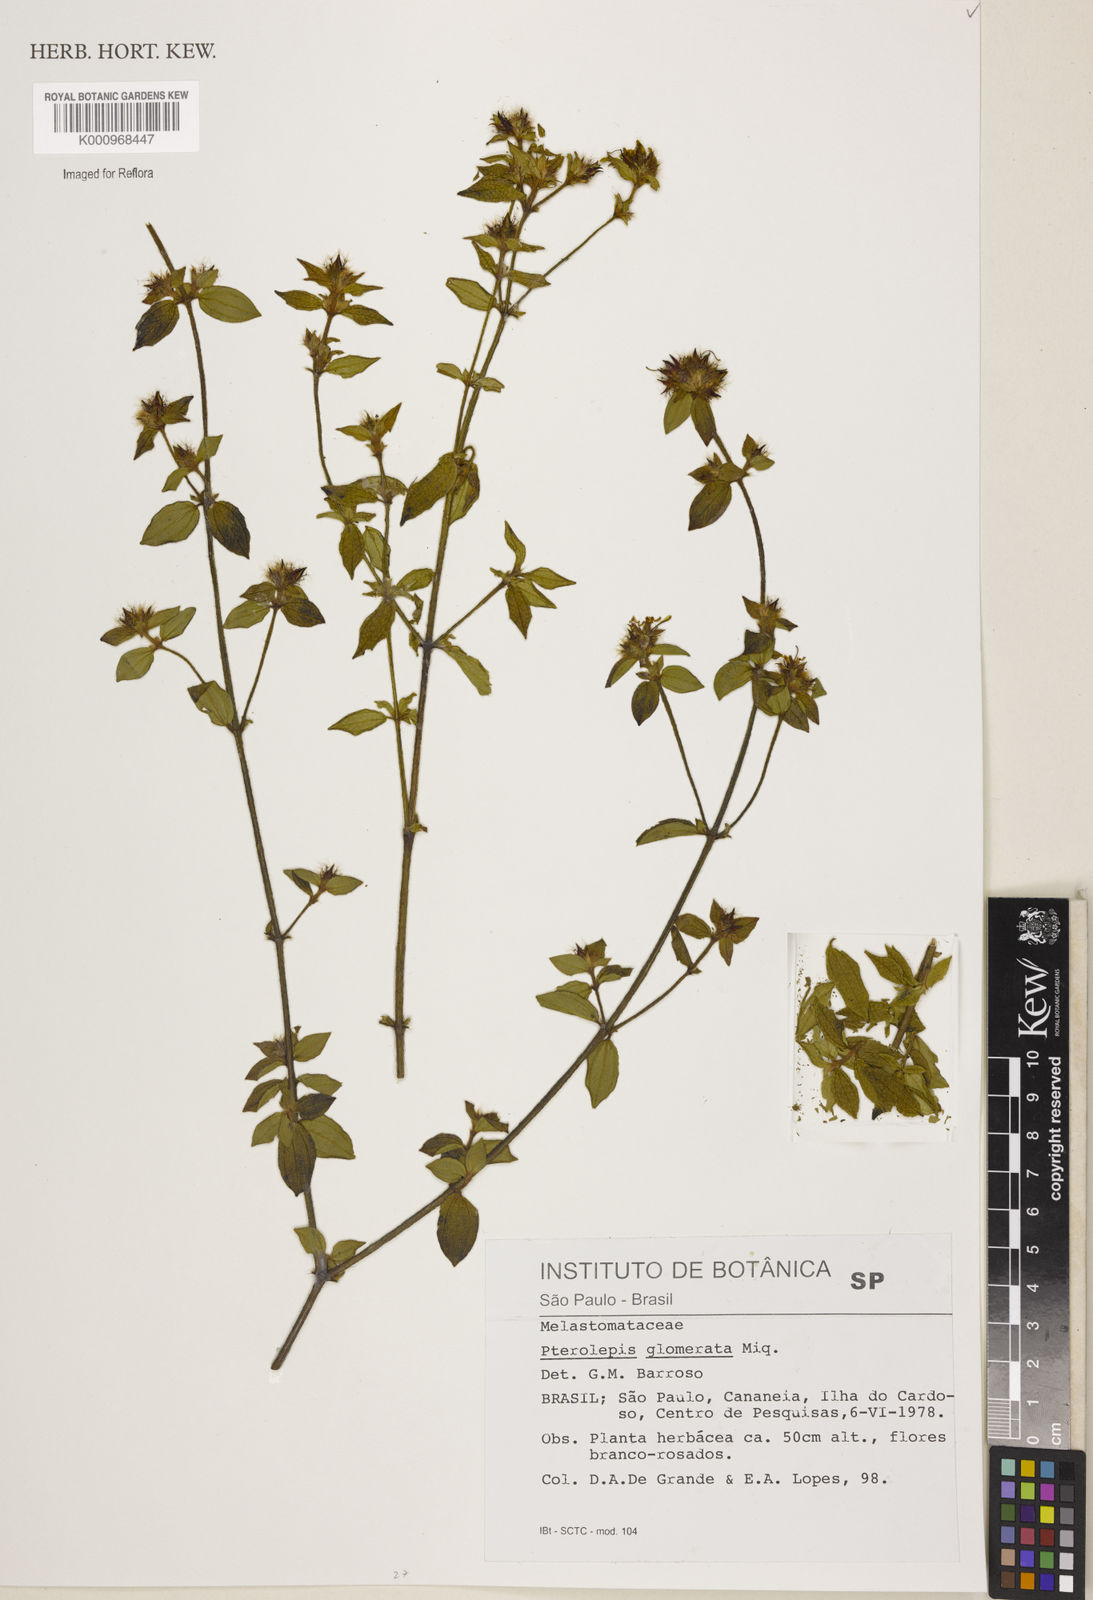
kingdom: Plantae
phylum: Tracheophyta
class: Magnoliopsida
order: Myrtales
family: Melastomataceae
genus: Pterolepis
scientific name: Pterolepis glomerata
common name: False meadowbeauty
